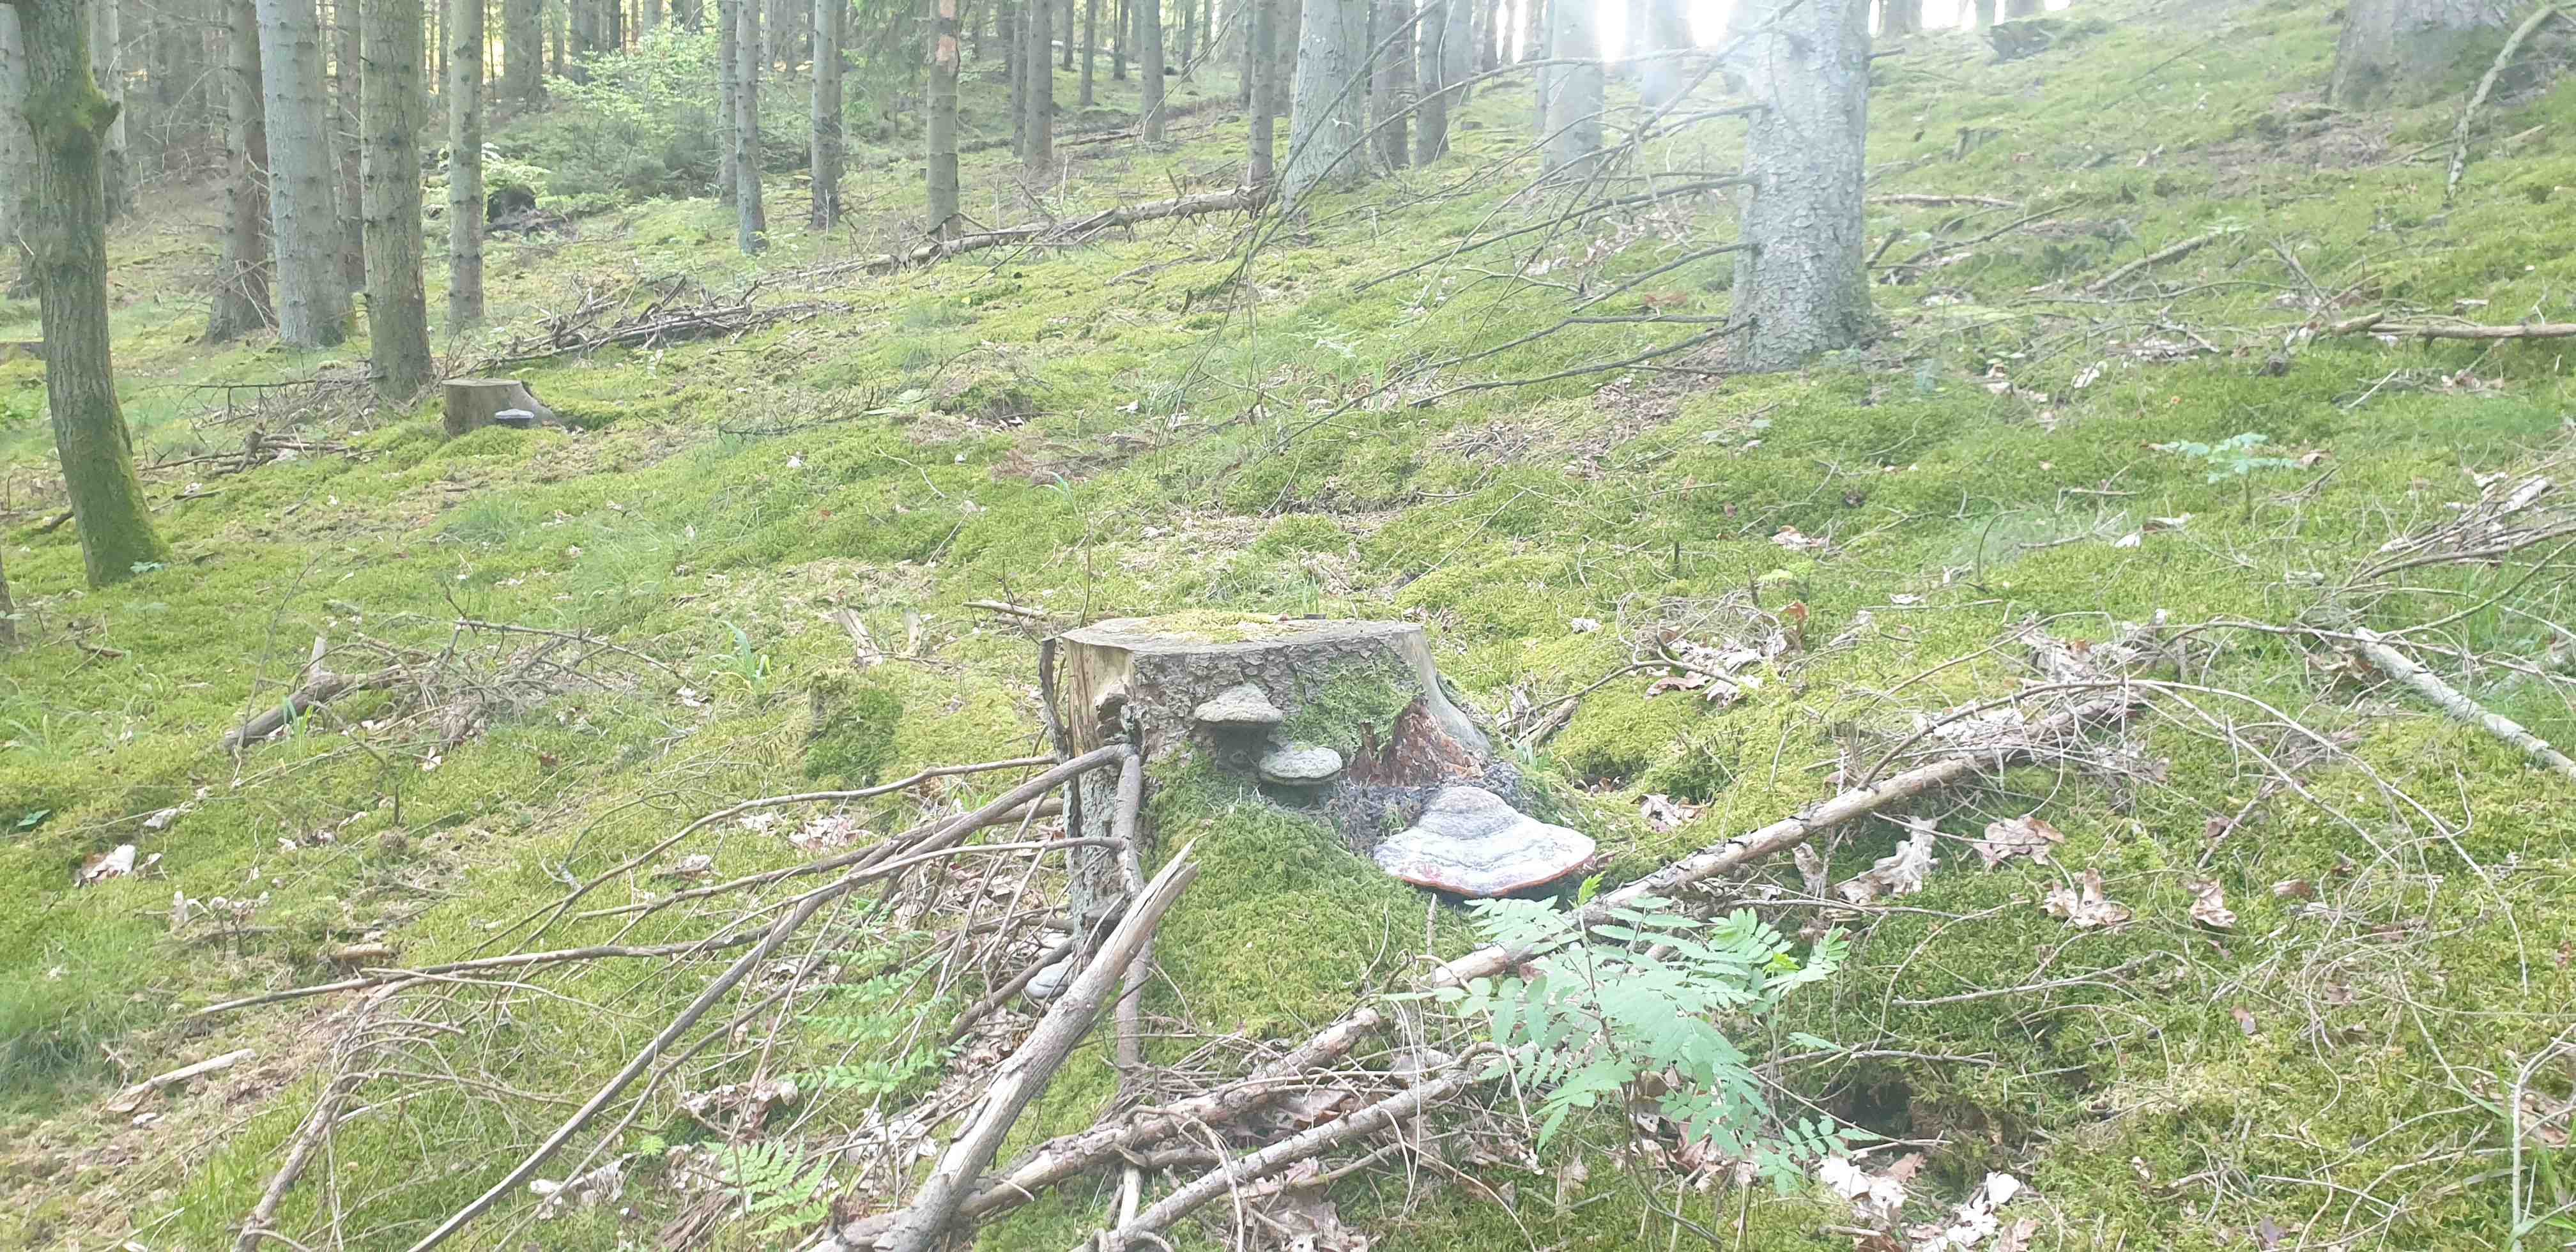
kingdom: Fungi
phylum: Basidiomycota
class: Agaricomycetes
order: Polyporales
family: Fomitopsidaceae
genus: Fomitopsis
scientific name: Fomitopsis pinicola
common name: randbæltet hovporesvamp
